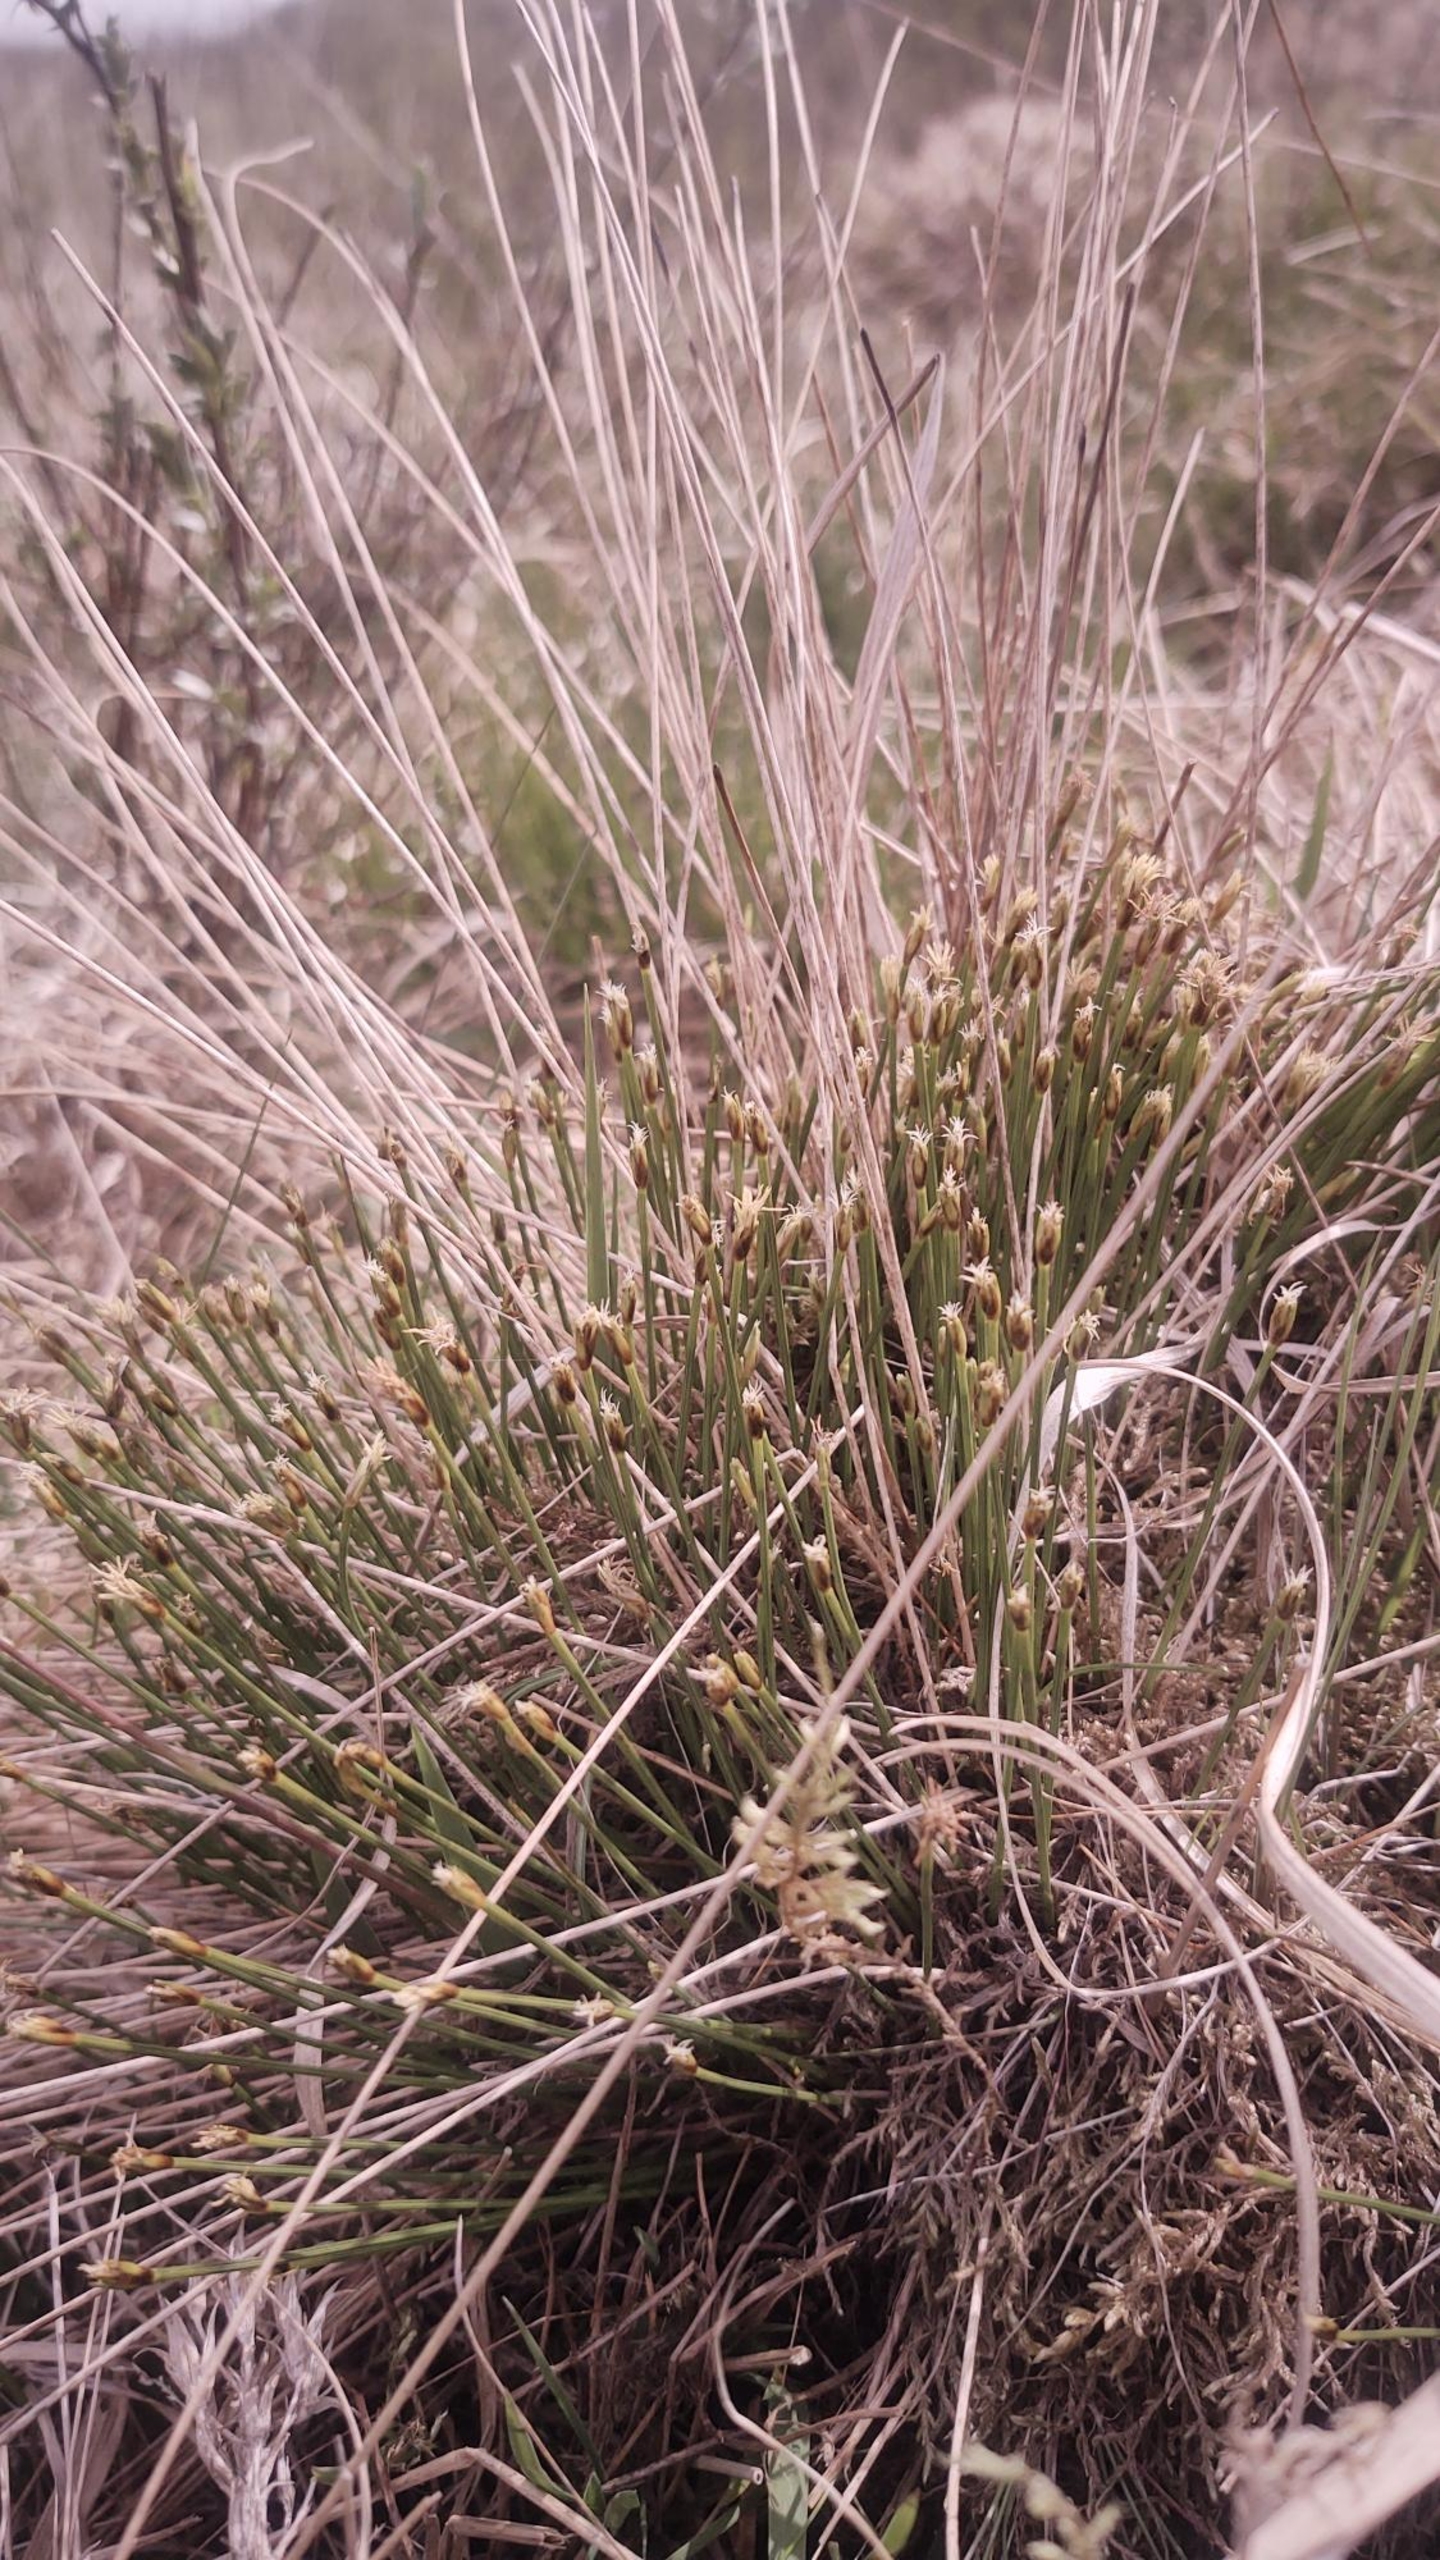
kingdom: Plantae
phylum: Tracheophyta
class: Liliopsida
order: Poales
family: Cyperaceae
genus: Trichophorum
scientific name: Trichophorum cespitosum
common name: Tuekogleaks
